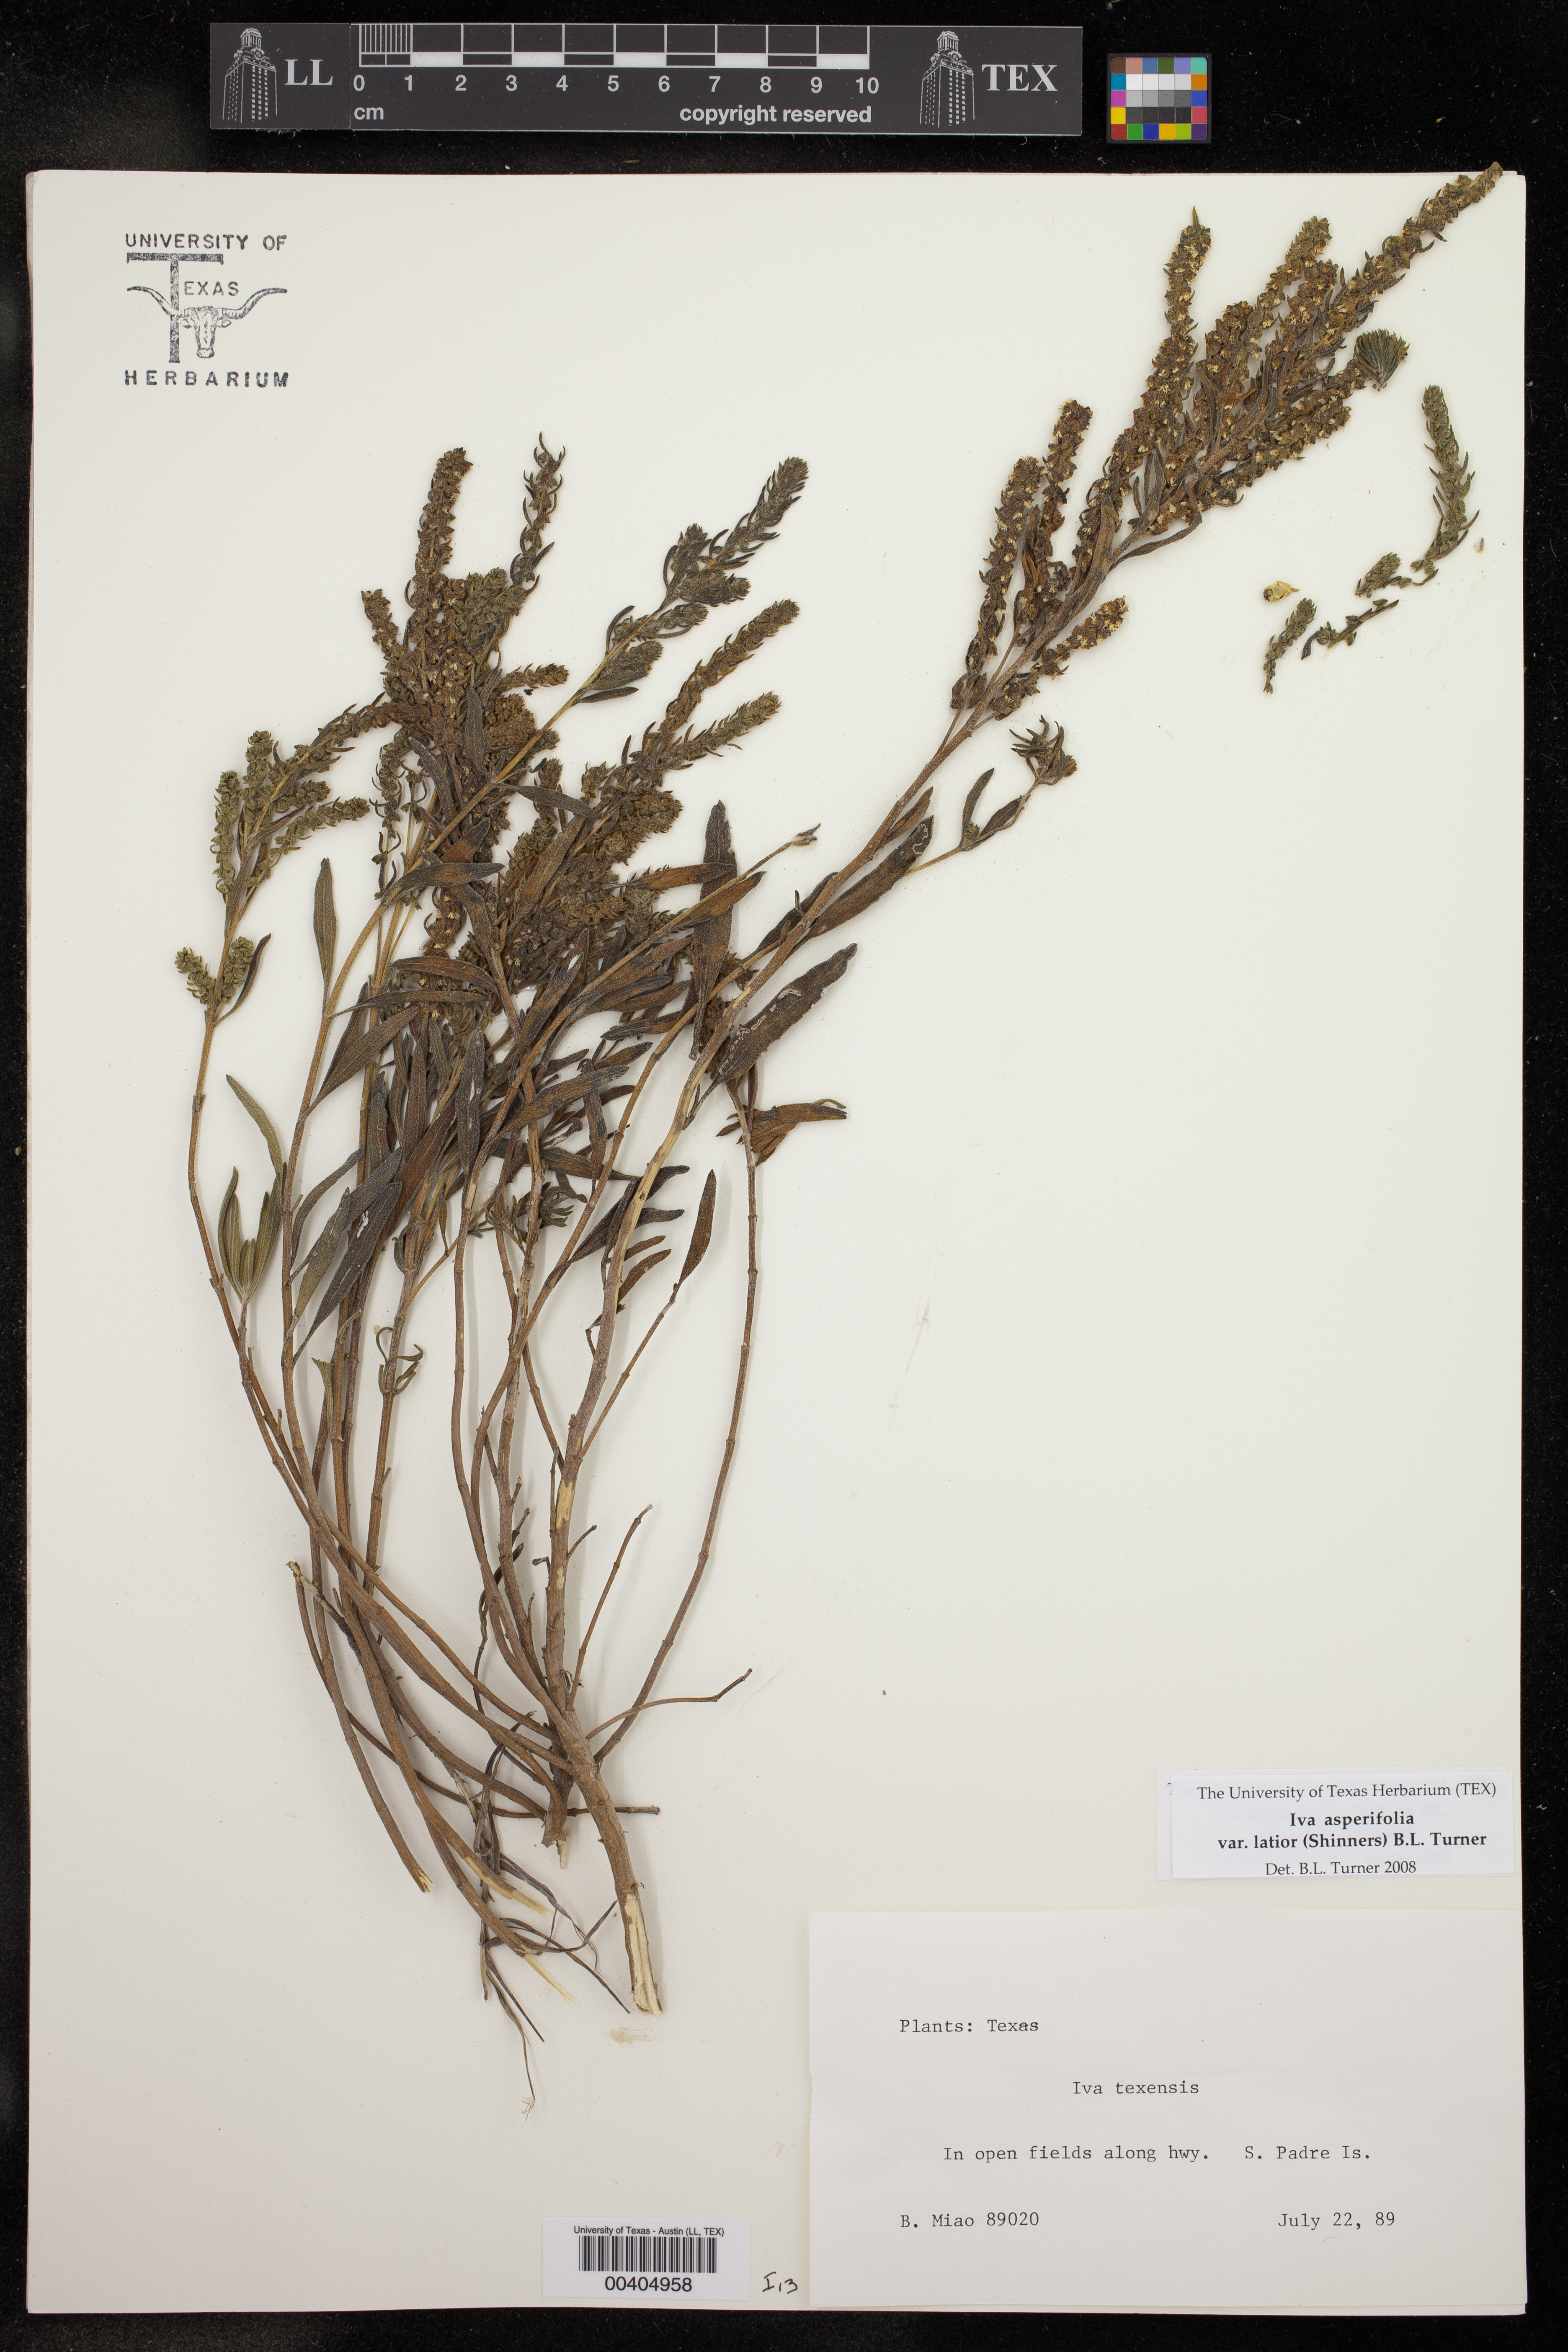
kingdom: Plantae
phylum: Tracheophyta
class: Magnoliopsida
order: Asterales
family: Asteraceae
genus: Iva
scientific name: Iva texensis
